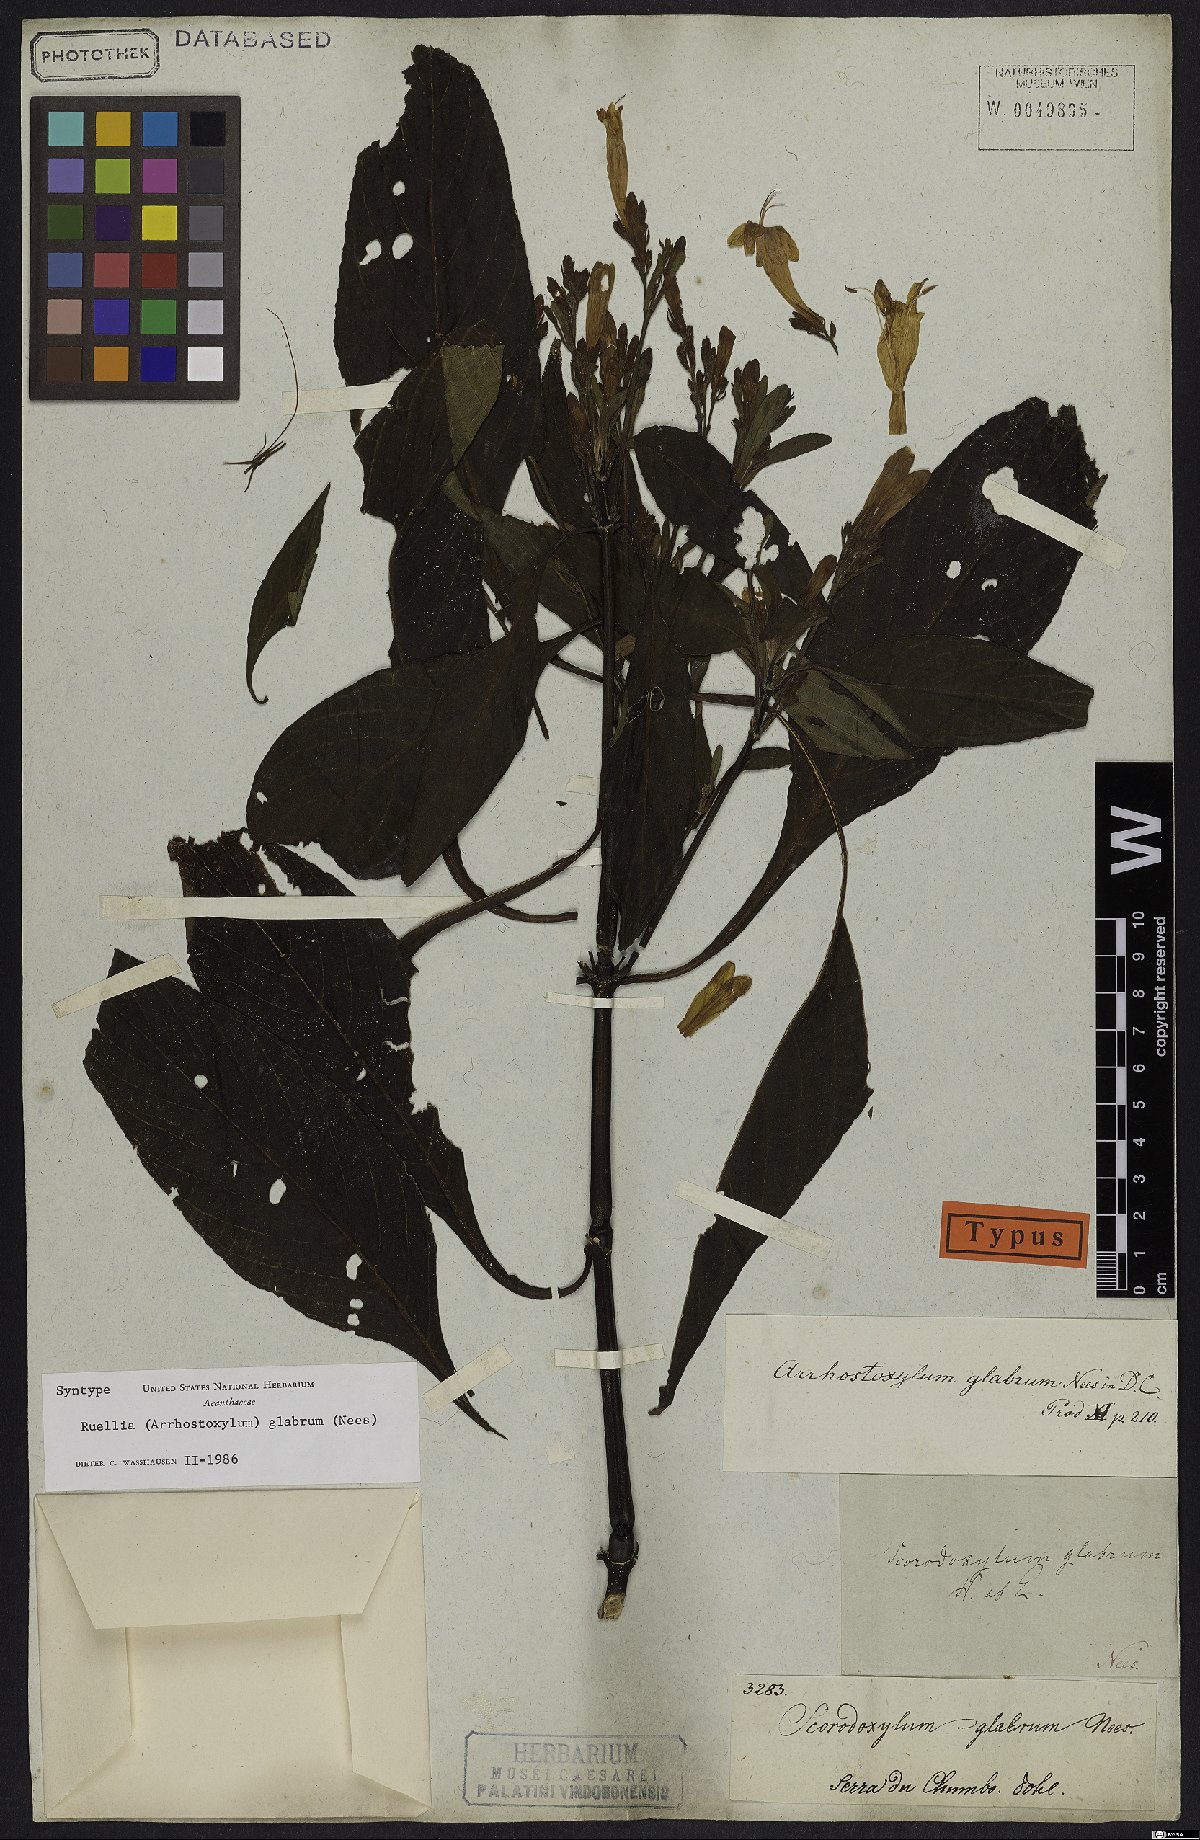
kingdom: Plantae
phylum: Tracheophyta
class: Magnoliopsida
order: Lamiales
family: Acanthaceae
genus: Ruellia
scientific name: Ruellia serrana
